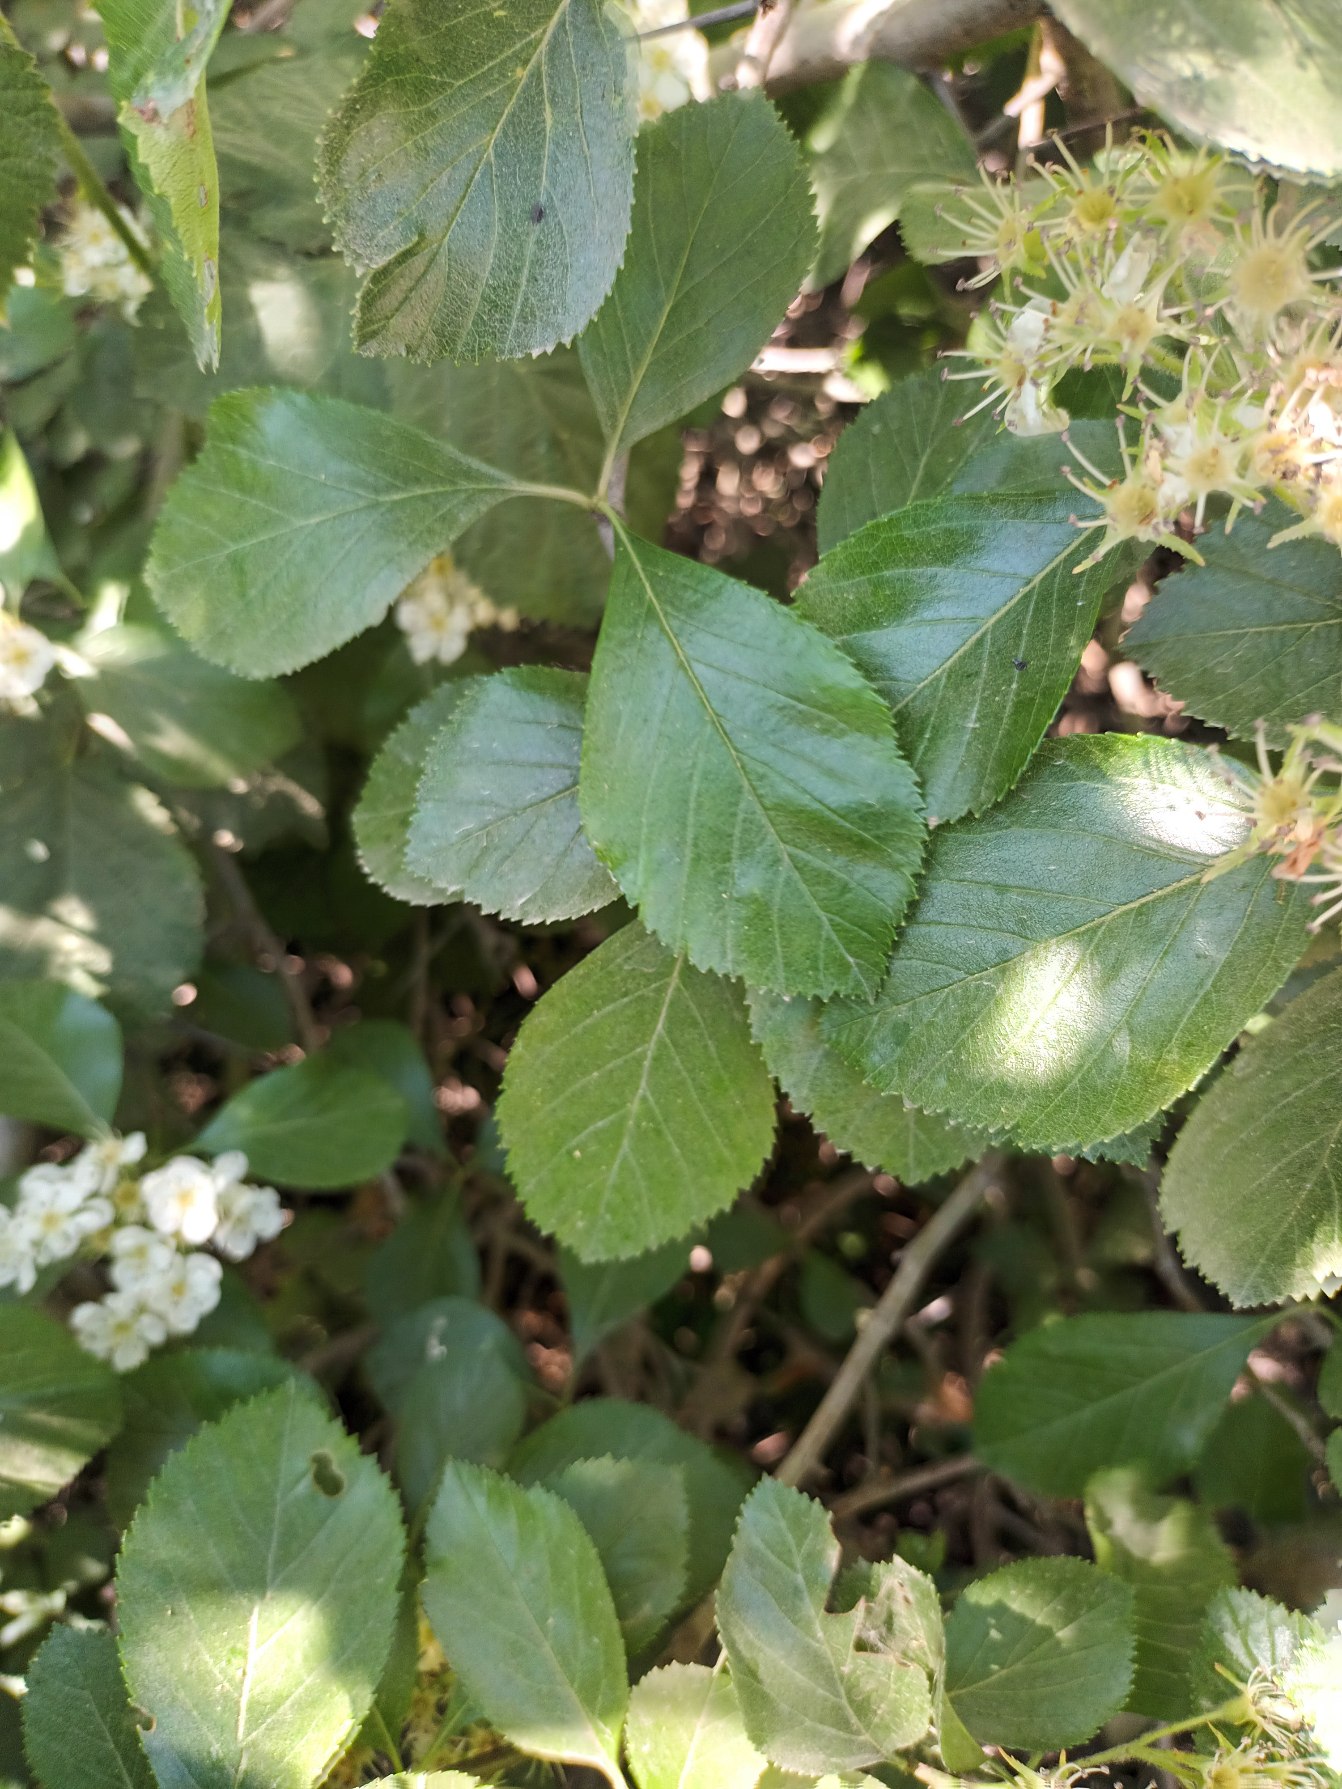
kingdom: Plantae
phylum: Tracheophyta
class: Magnoliopsida
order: Rosales
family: Rosaceae
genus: Crataegus
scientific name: Crataegus persimilis
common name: Syltornet tjørn
